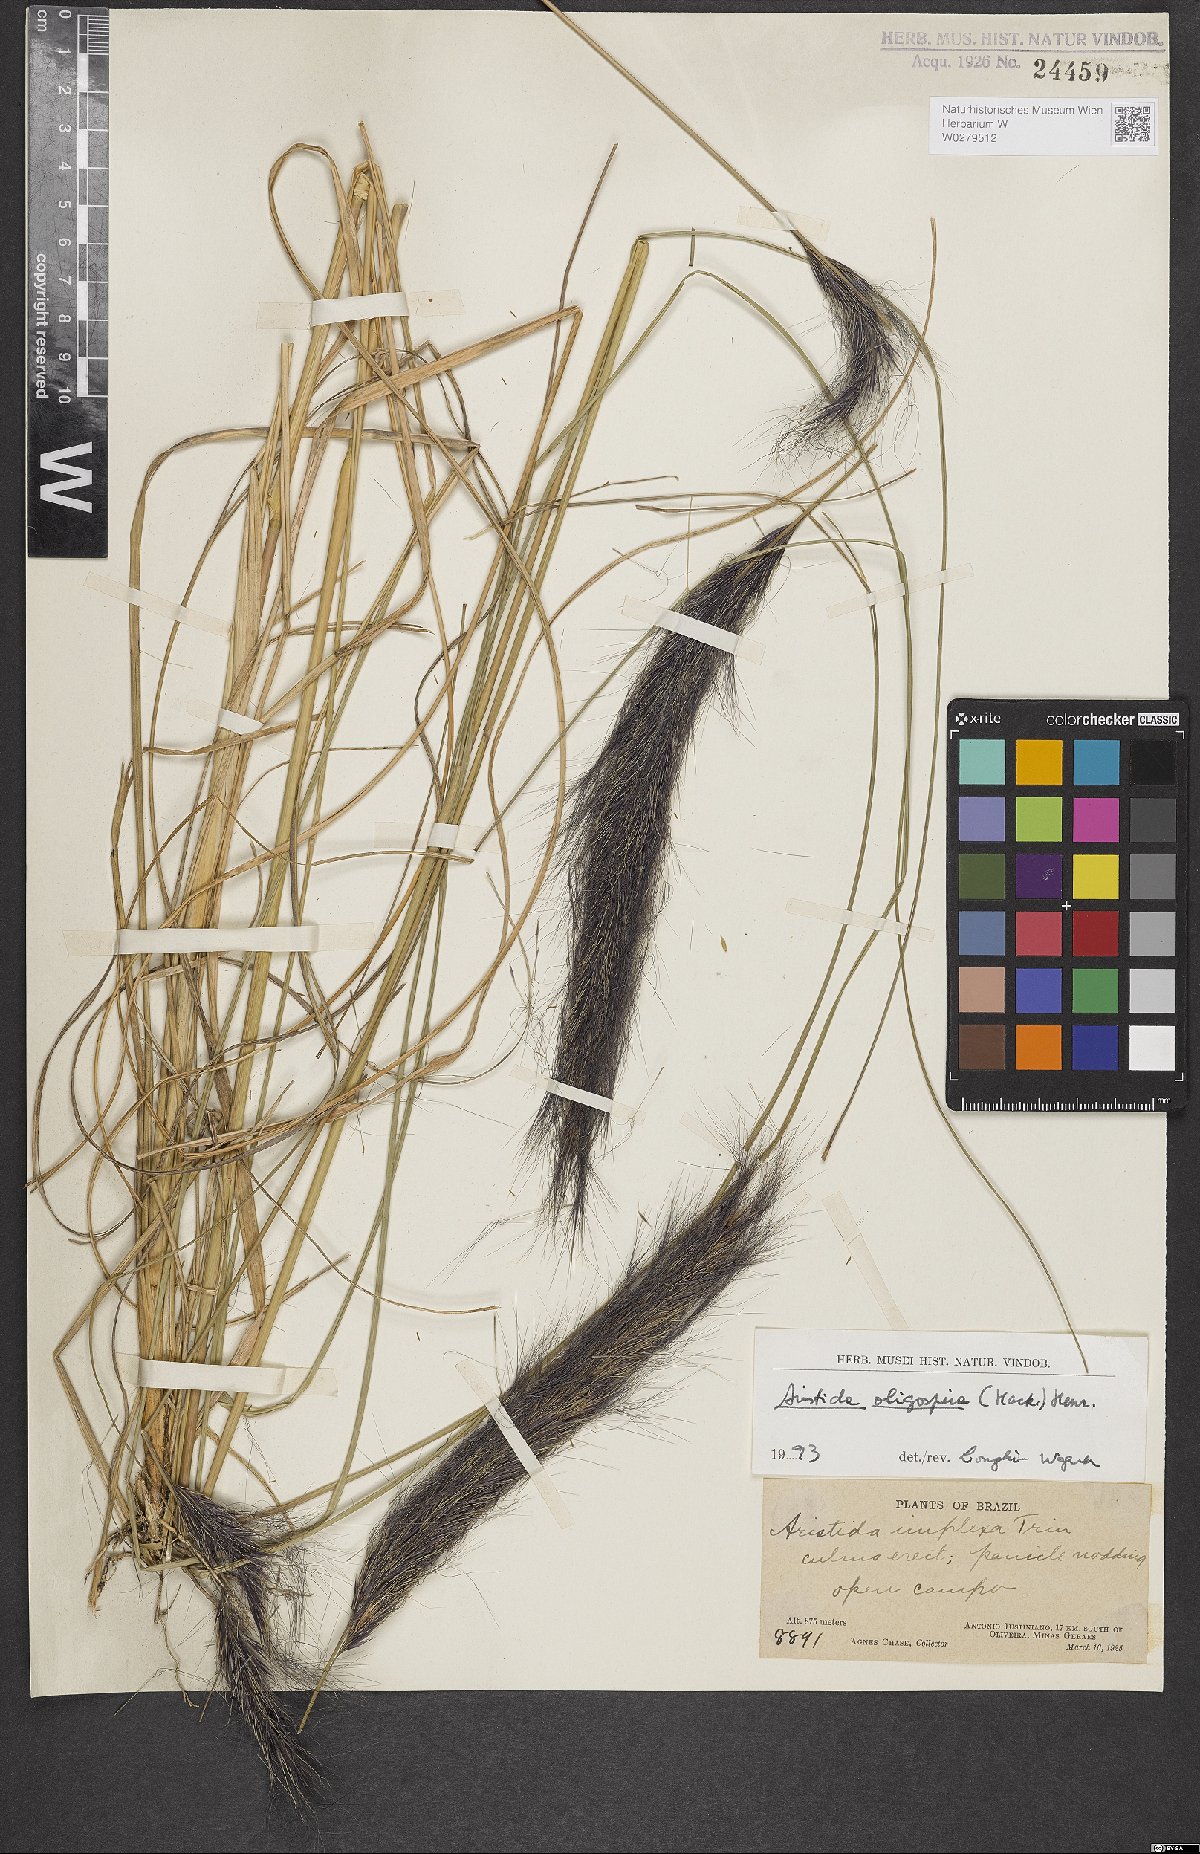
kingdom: Plantae
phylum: Tracheophyta
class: Liliopsida
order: Poales
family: Poaceae
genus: Aristida
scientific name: Aristida oligospira
